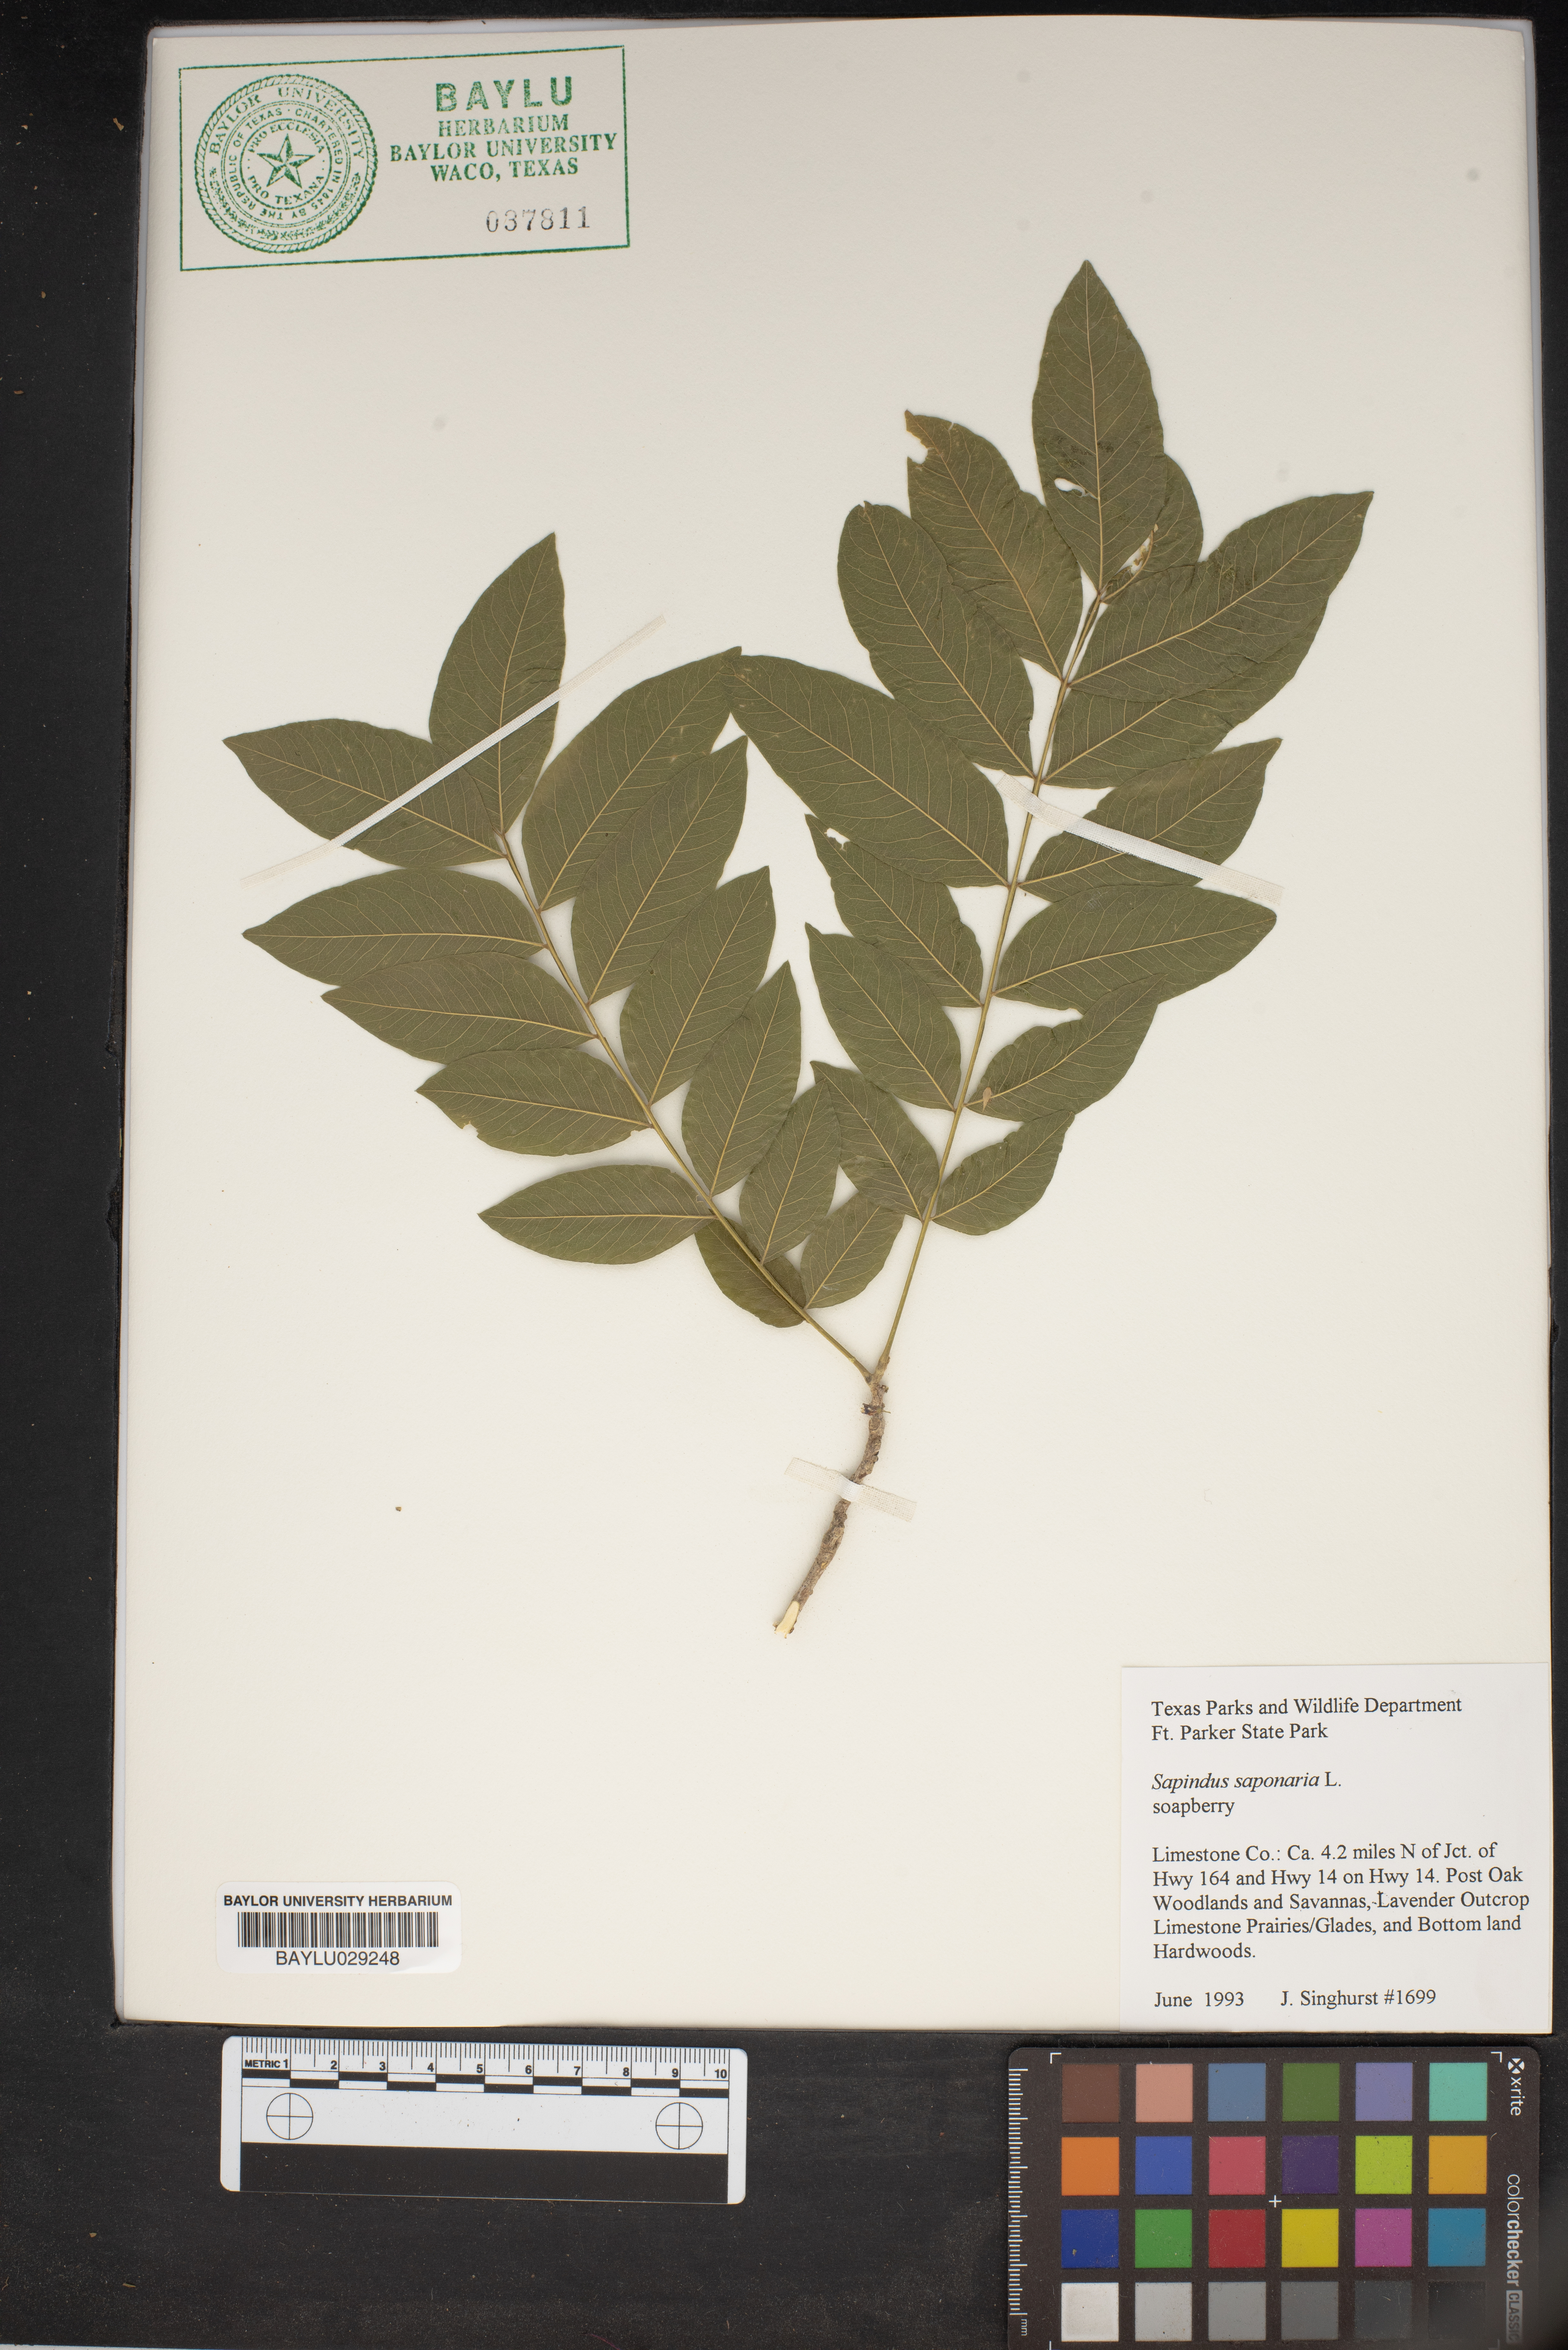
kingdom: Plantae
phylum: Tracheophyta
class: Magnoliopsida
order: Sapindales
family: Sapindaceae
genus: Sapindus
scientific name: Sapindus saponaria
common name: Wingleaf soapberry
